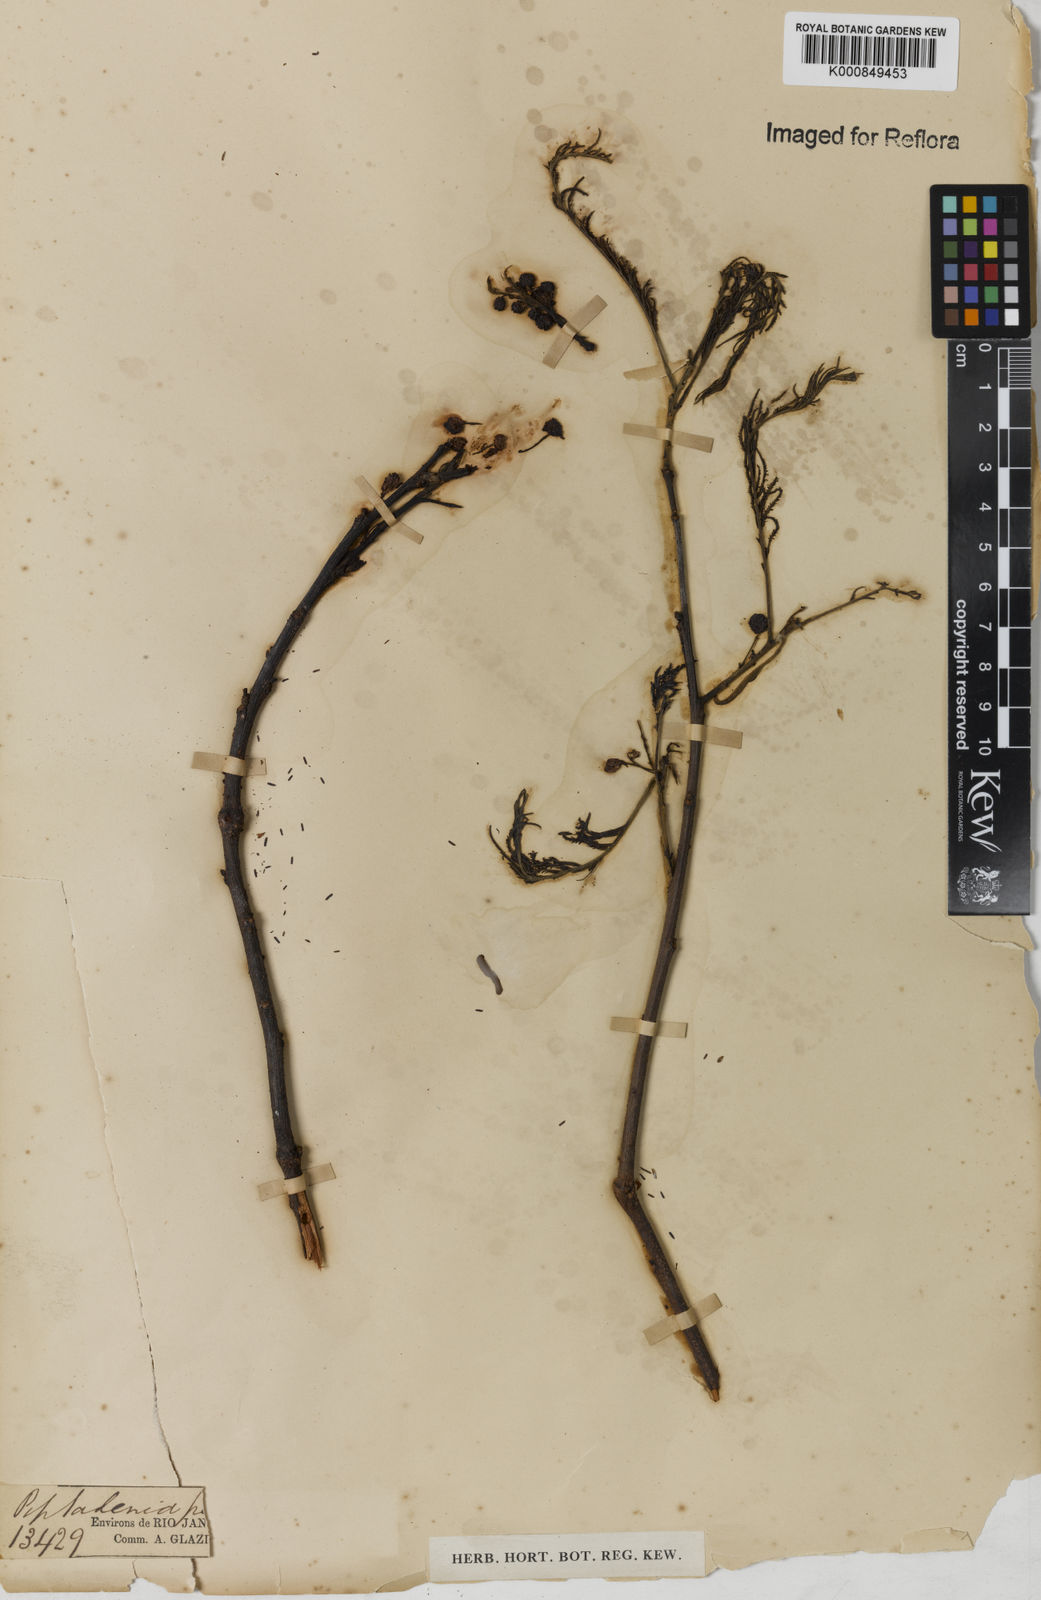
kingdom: Plantae
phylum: Tracheophyta
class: Magnoliopsida
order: Fabales
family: Fabaceae
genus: Anadenanthera
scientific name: Anadenanthera peregrina
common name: Cohoba
